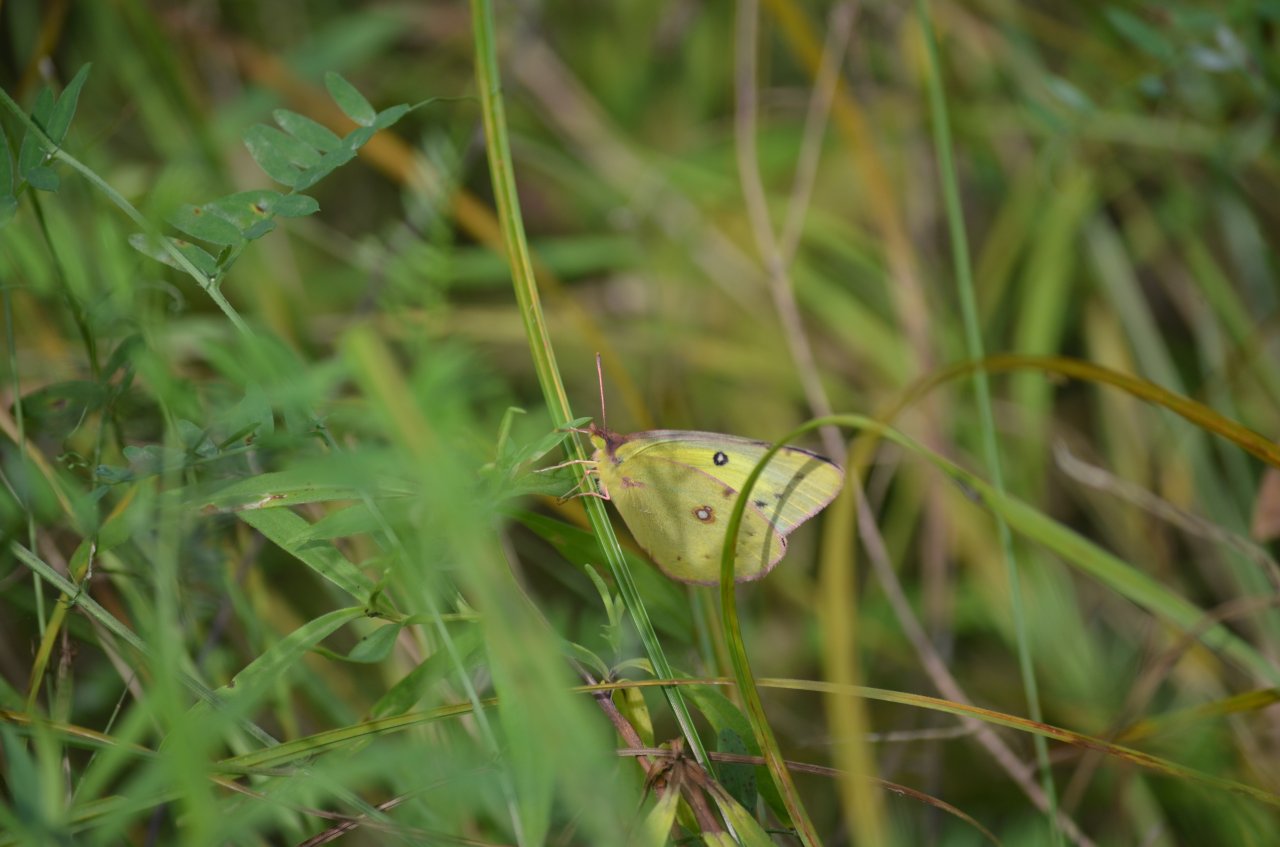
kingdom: Animalia
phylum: Arthropoda
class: Insecta
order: Lepidoptera
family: Pieridae
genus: Colias
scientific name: Colias philodice
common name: Clouded Sulphur
